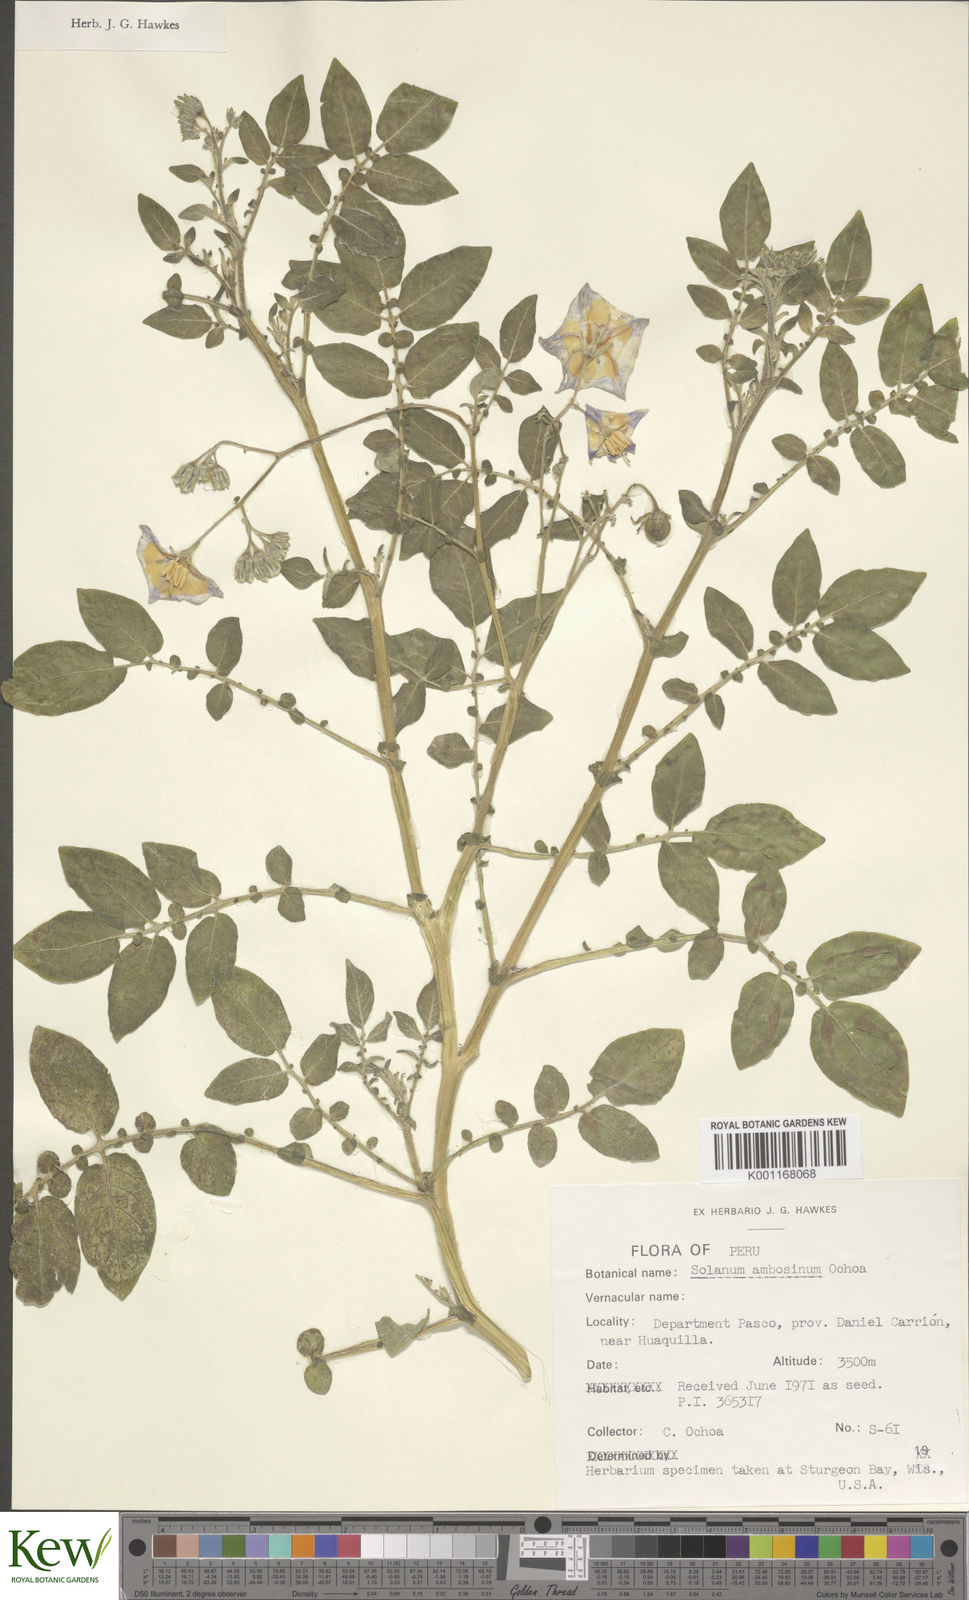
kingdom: Plantae
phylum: Tracheophyta
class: Magnoliopsida
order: Solanales
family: Solanaceae
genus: Solanum
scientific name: Solanum candolleanum
